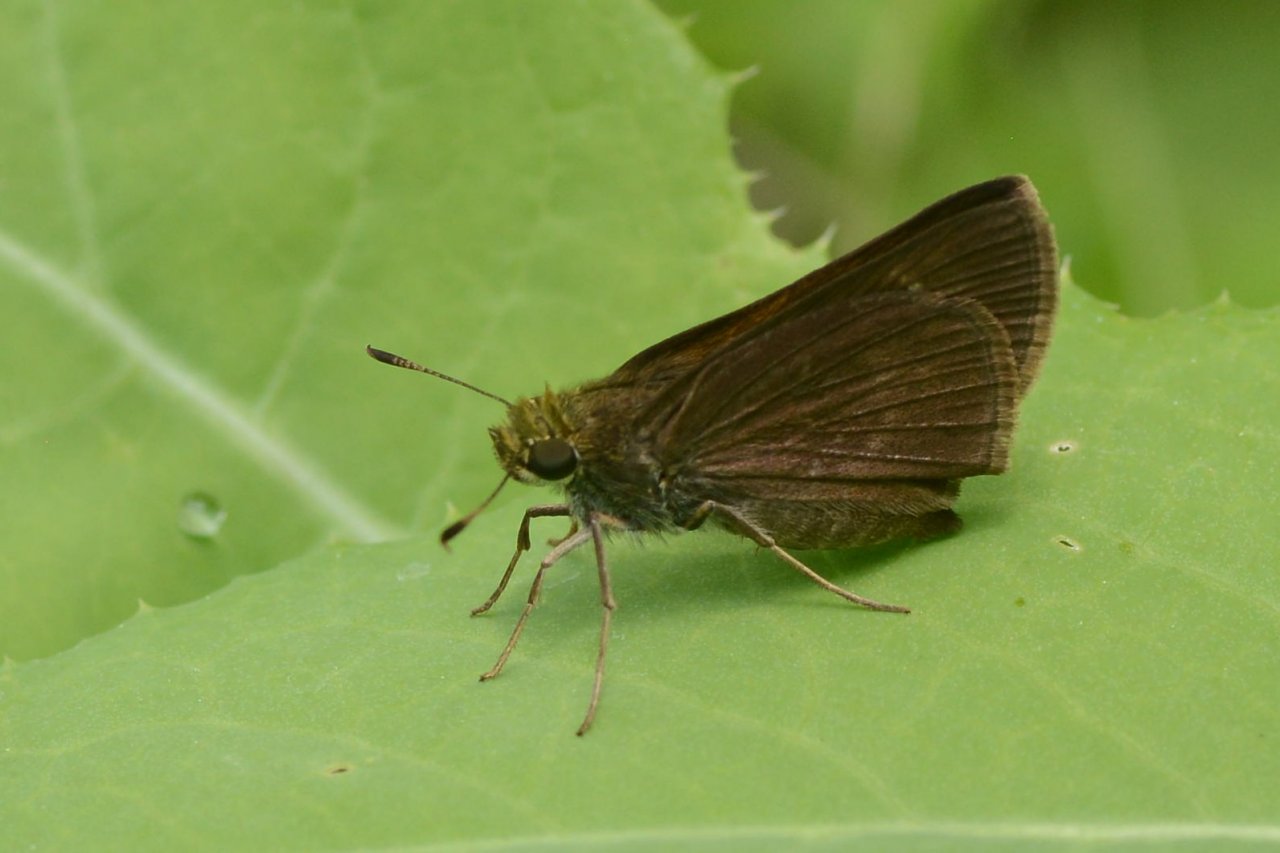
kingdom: Animalia
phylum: Arthropoda
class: Insecta
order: Lepidoptera
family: Hesperiidae
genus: Euphyes
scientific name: Euphyes vestris
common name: Dun Skipper
